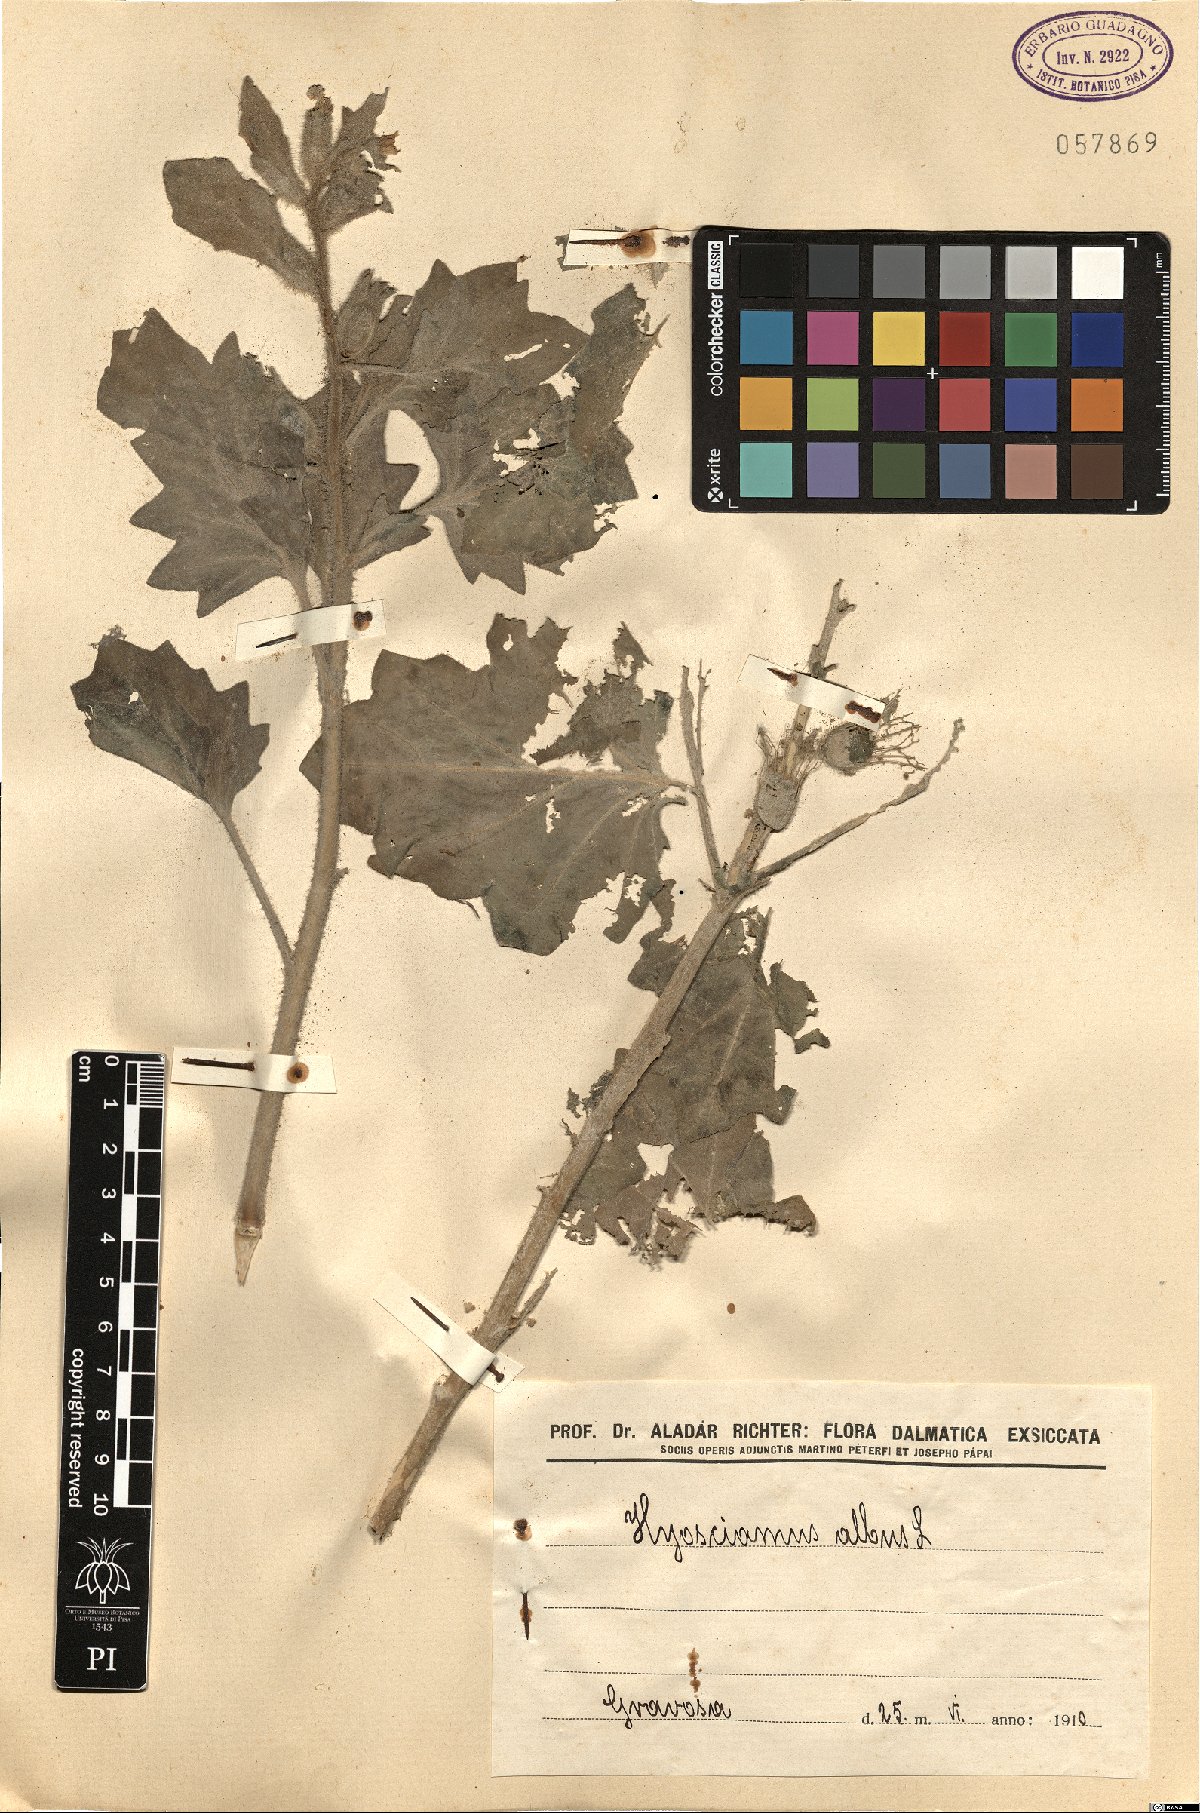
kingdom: Plantae
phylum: Tracheophyta
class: Magnoliopsida
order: Solanales
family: Solanaceae
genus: Hyoscyamus
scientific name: Hyoscyamus albus
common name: White henbane
